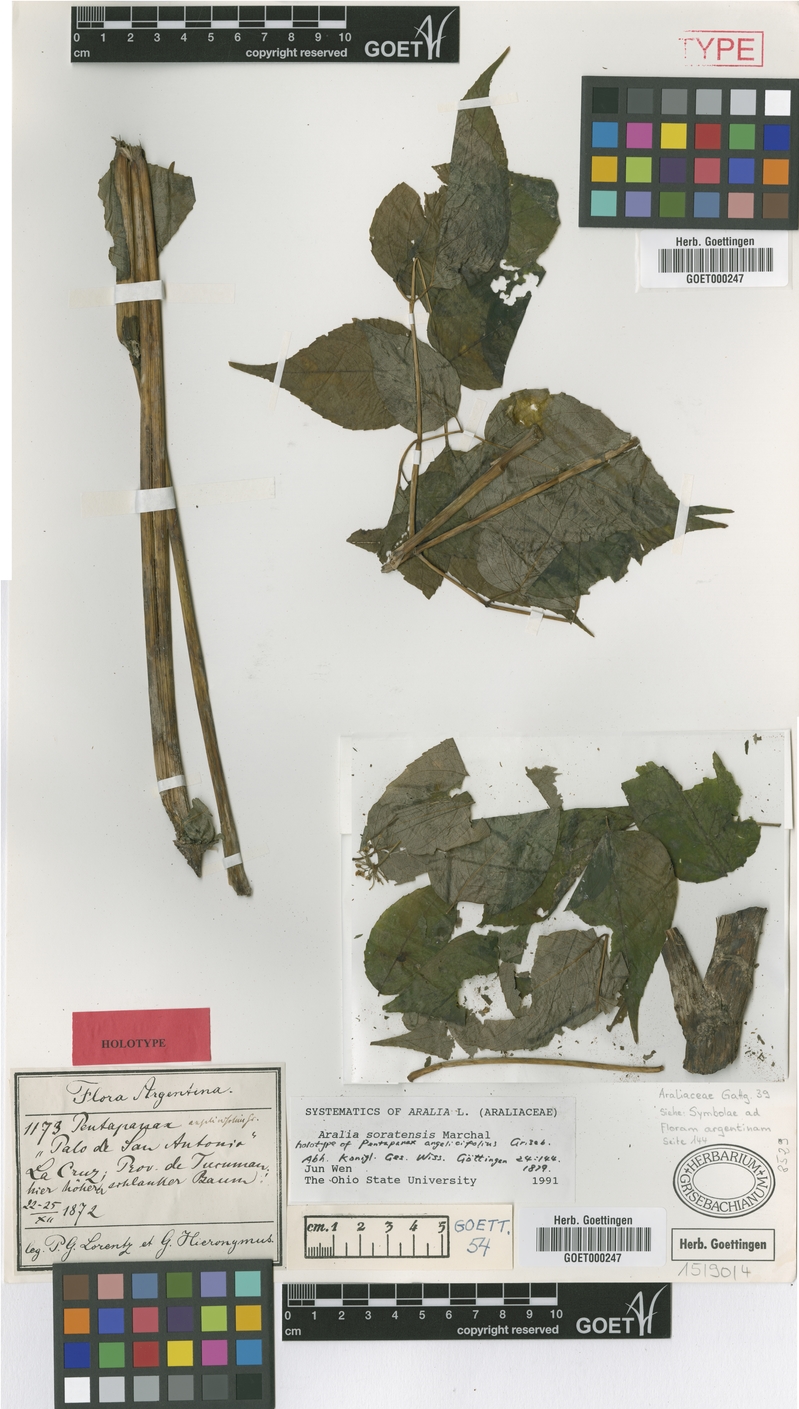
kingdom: Plantae
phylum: Tracheophyta
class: Magnoliopsida
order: Apiales
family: Araliaceae
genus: Aralia
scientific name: Aralia soratensis
